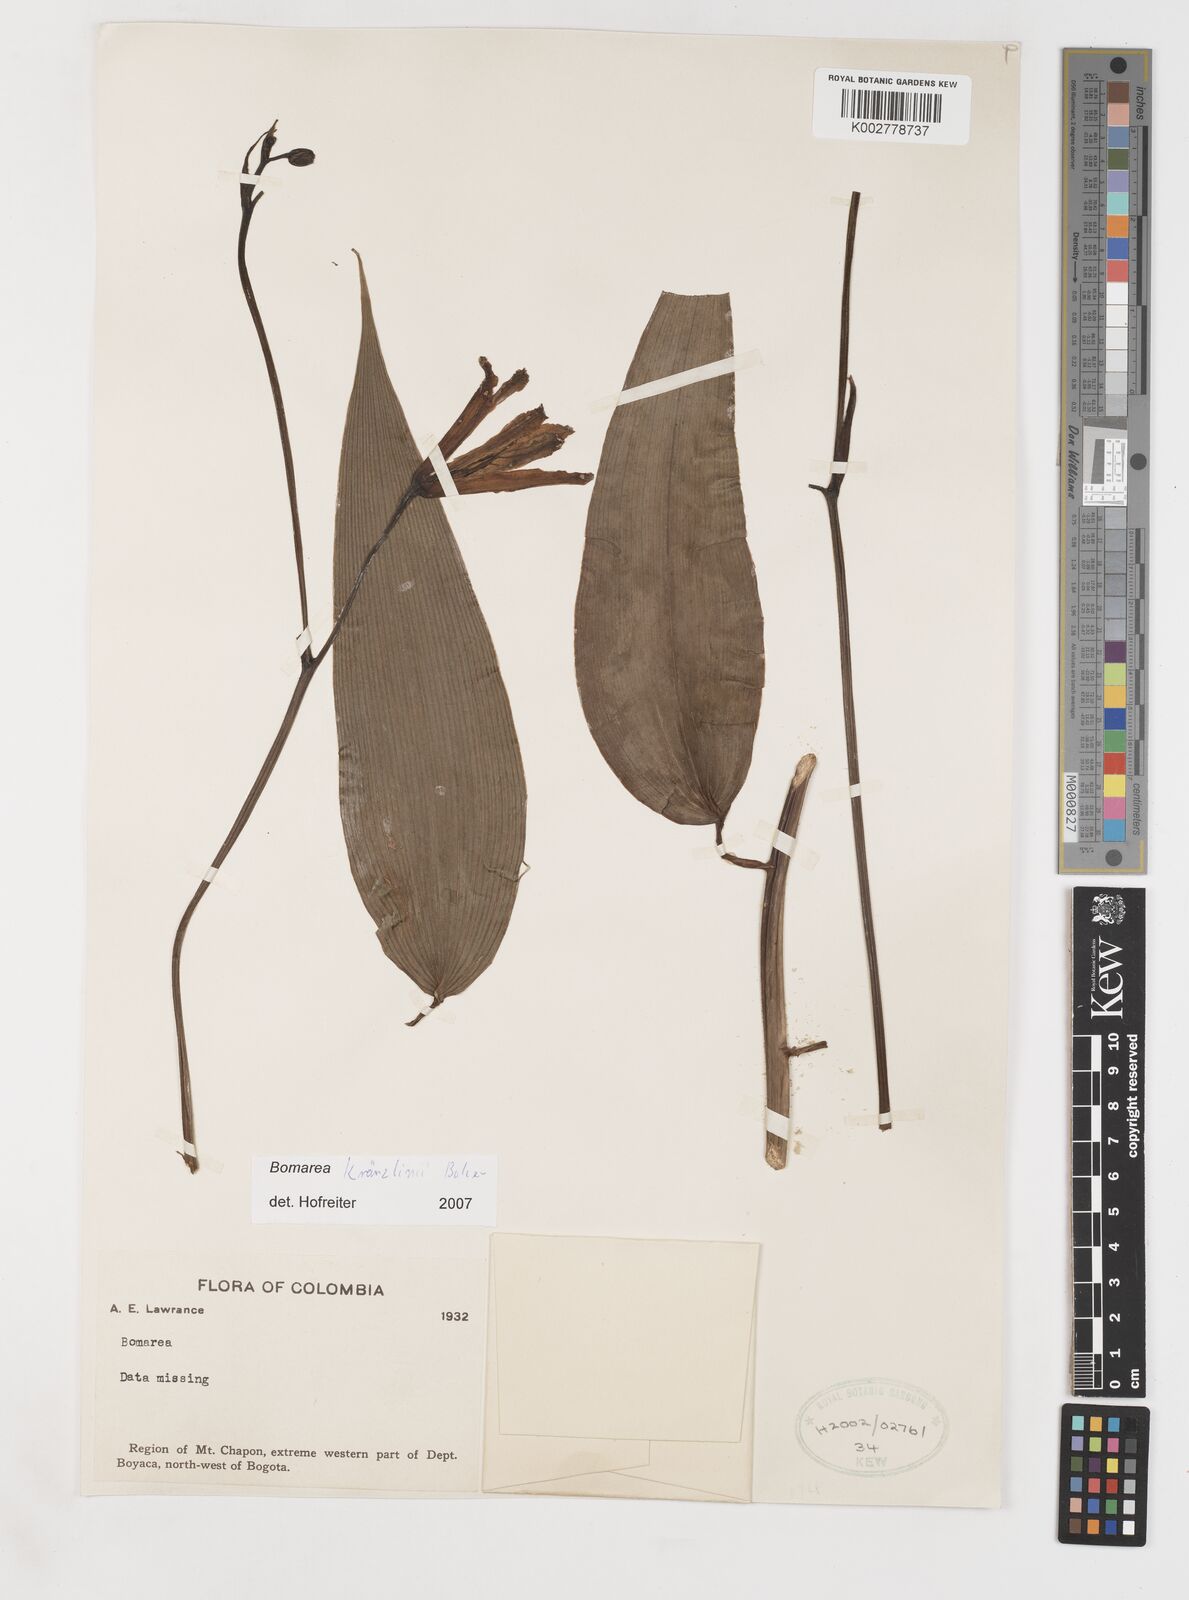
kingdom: Plantae
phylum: Tracheophyta
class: Liliopsida
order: Liliales
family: Alstroemeriaceae
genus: Bomarea
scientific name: Bomarea kraenzlinii
